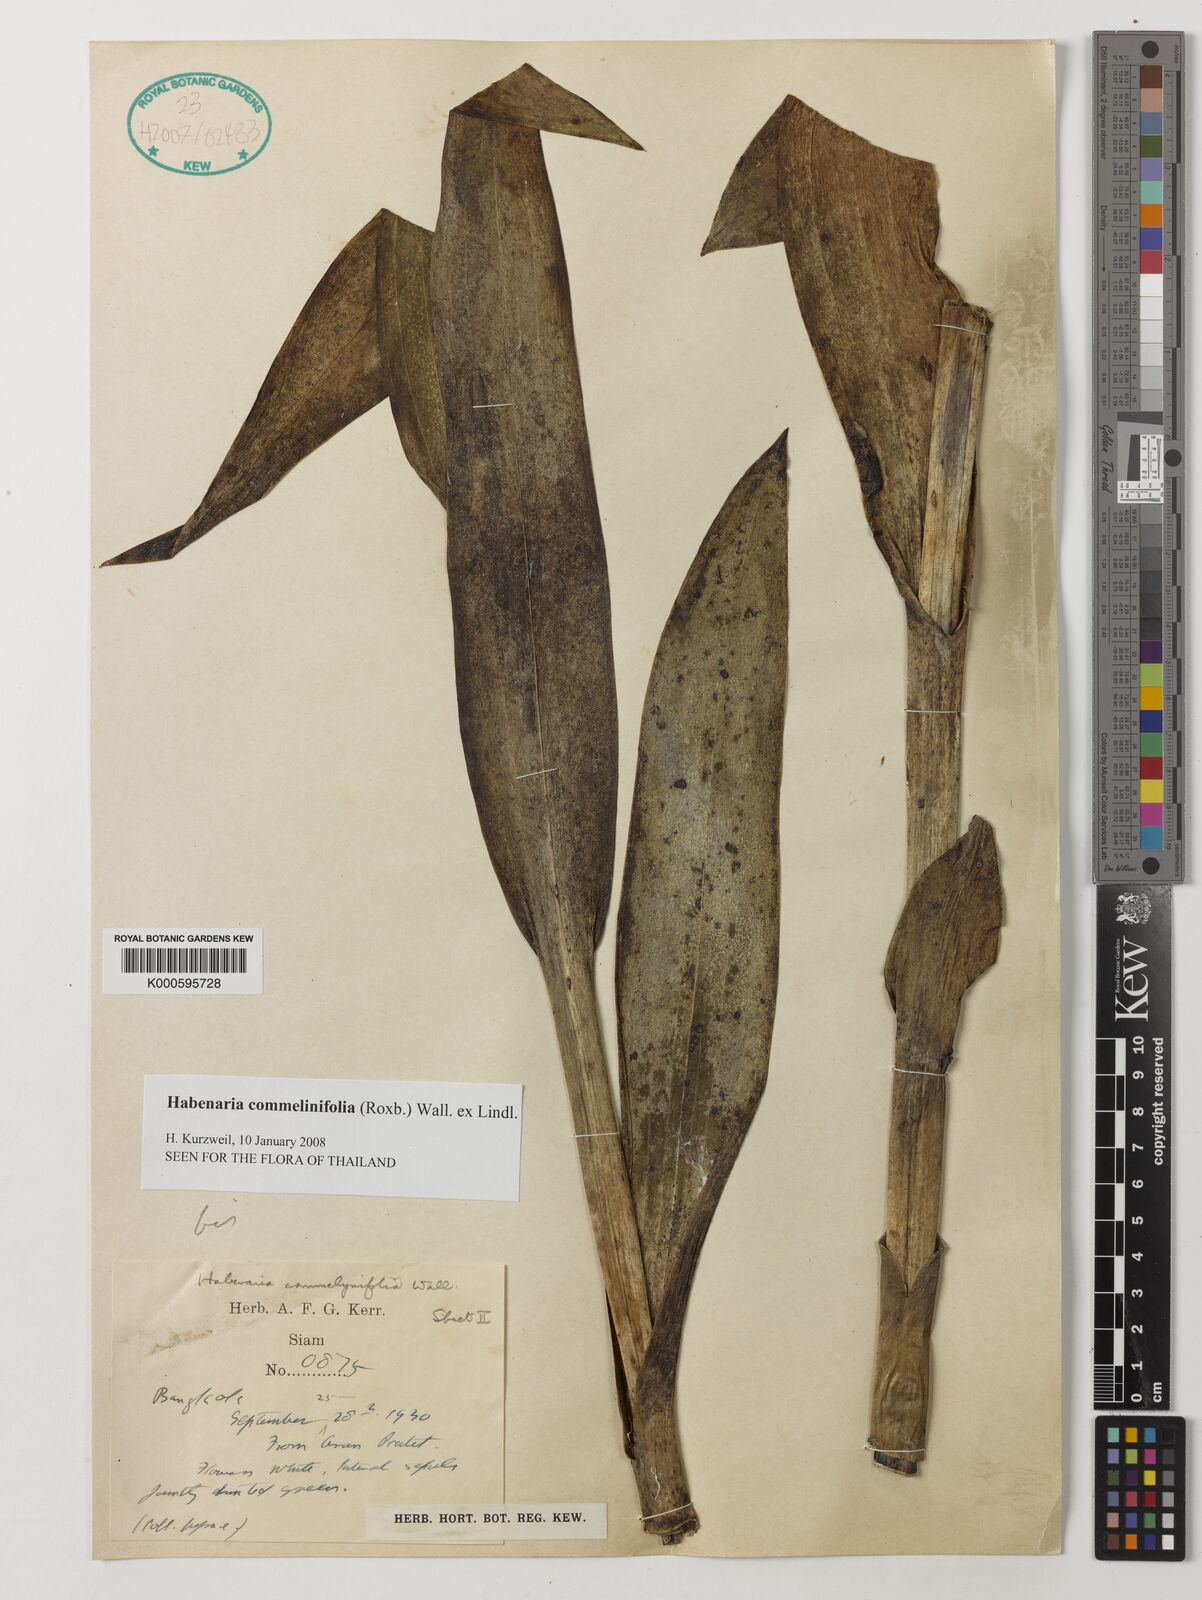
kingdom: Plantae
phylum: Tracheophyta
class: Liliopsida
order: Asparagales
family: Orchidaceae
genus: Habenaria
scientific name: Habenaria commelinifolia
